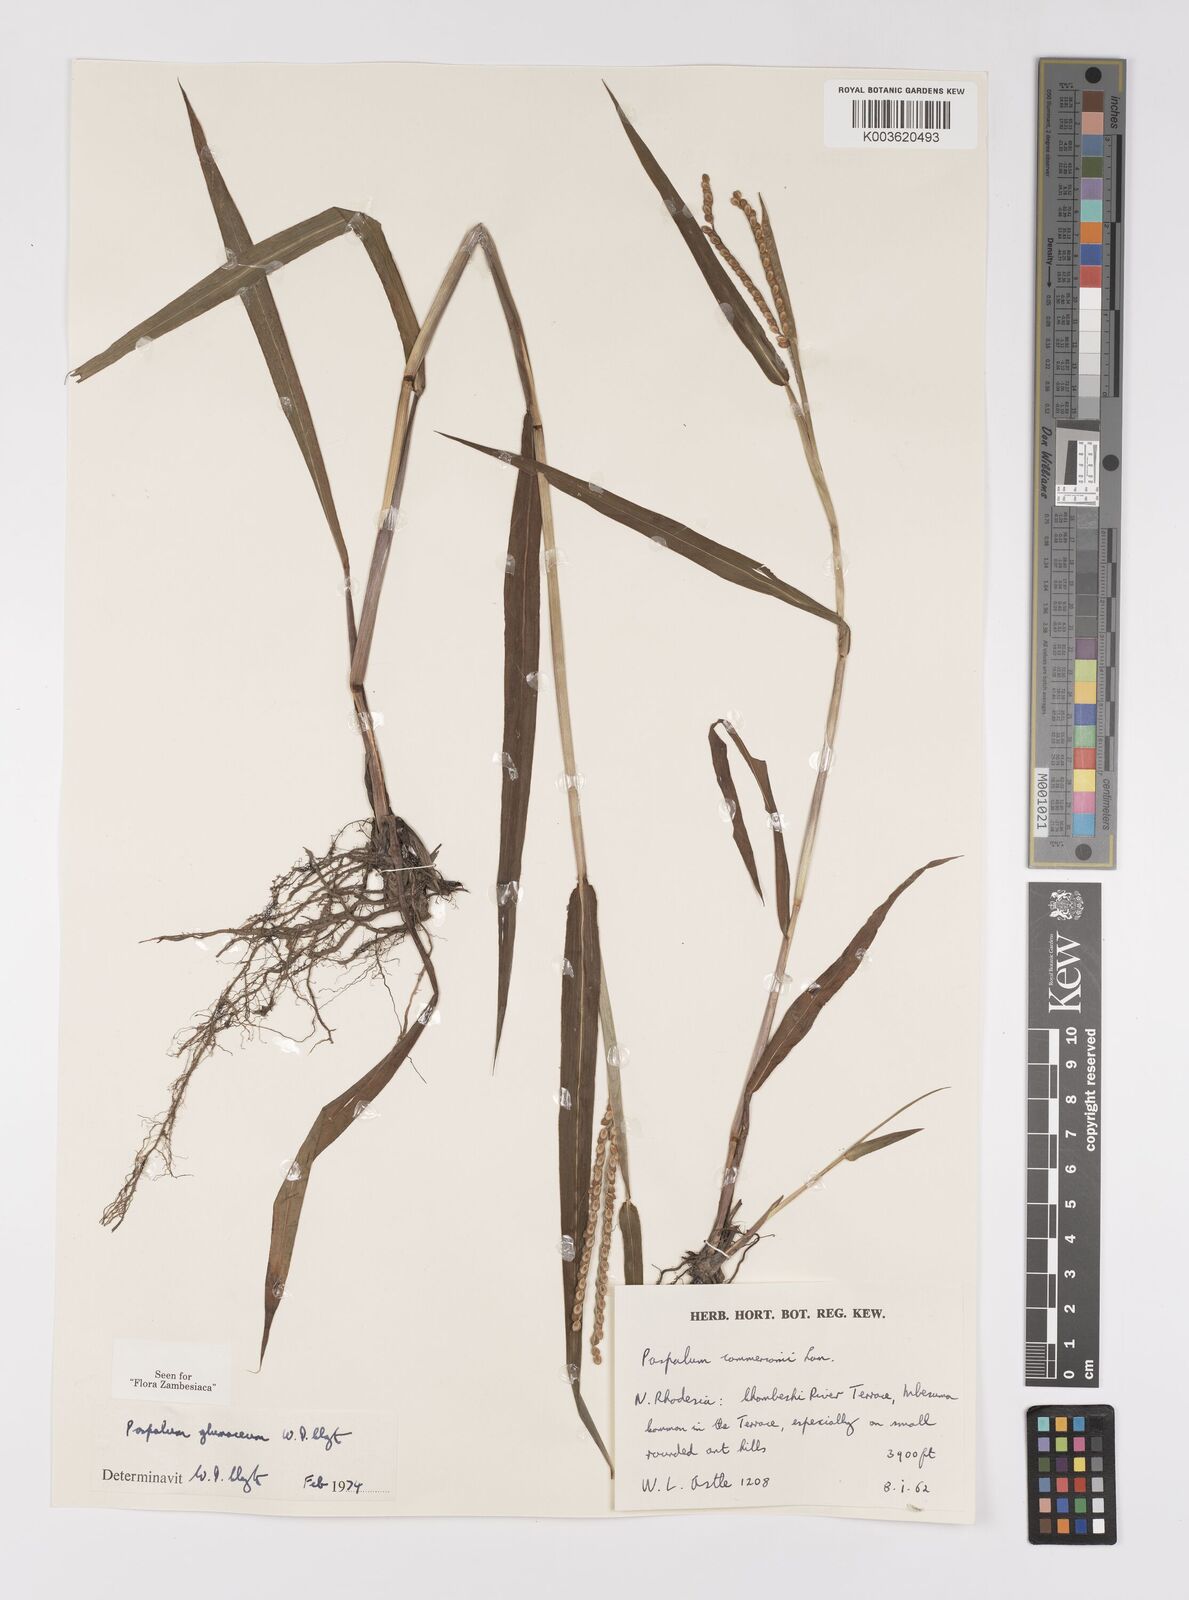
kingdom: Plantae
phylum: Tracheophyta
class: Liliopsida
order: Poales
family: Poaceae
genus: Paspalum
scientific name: Paspalum glumaceum
